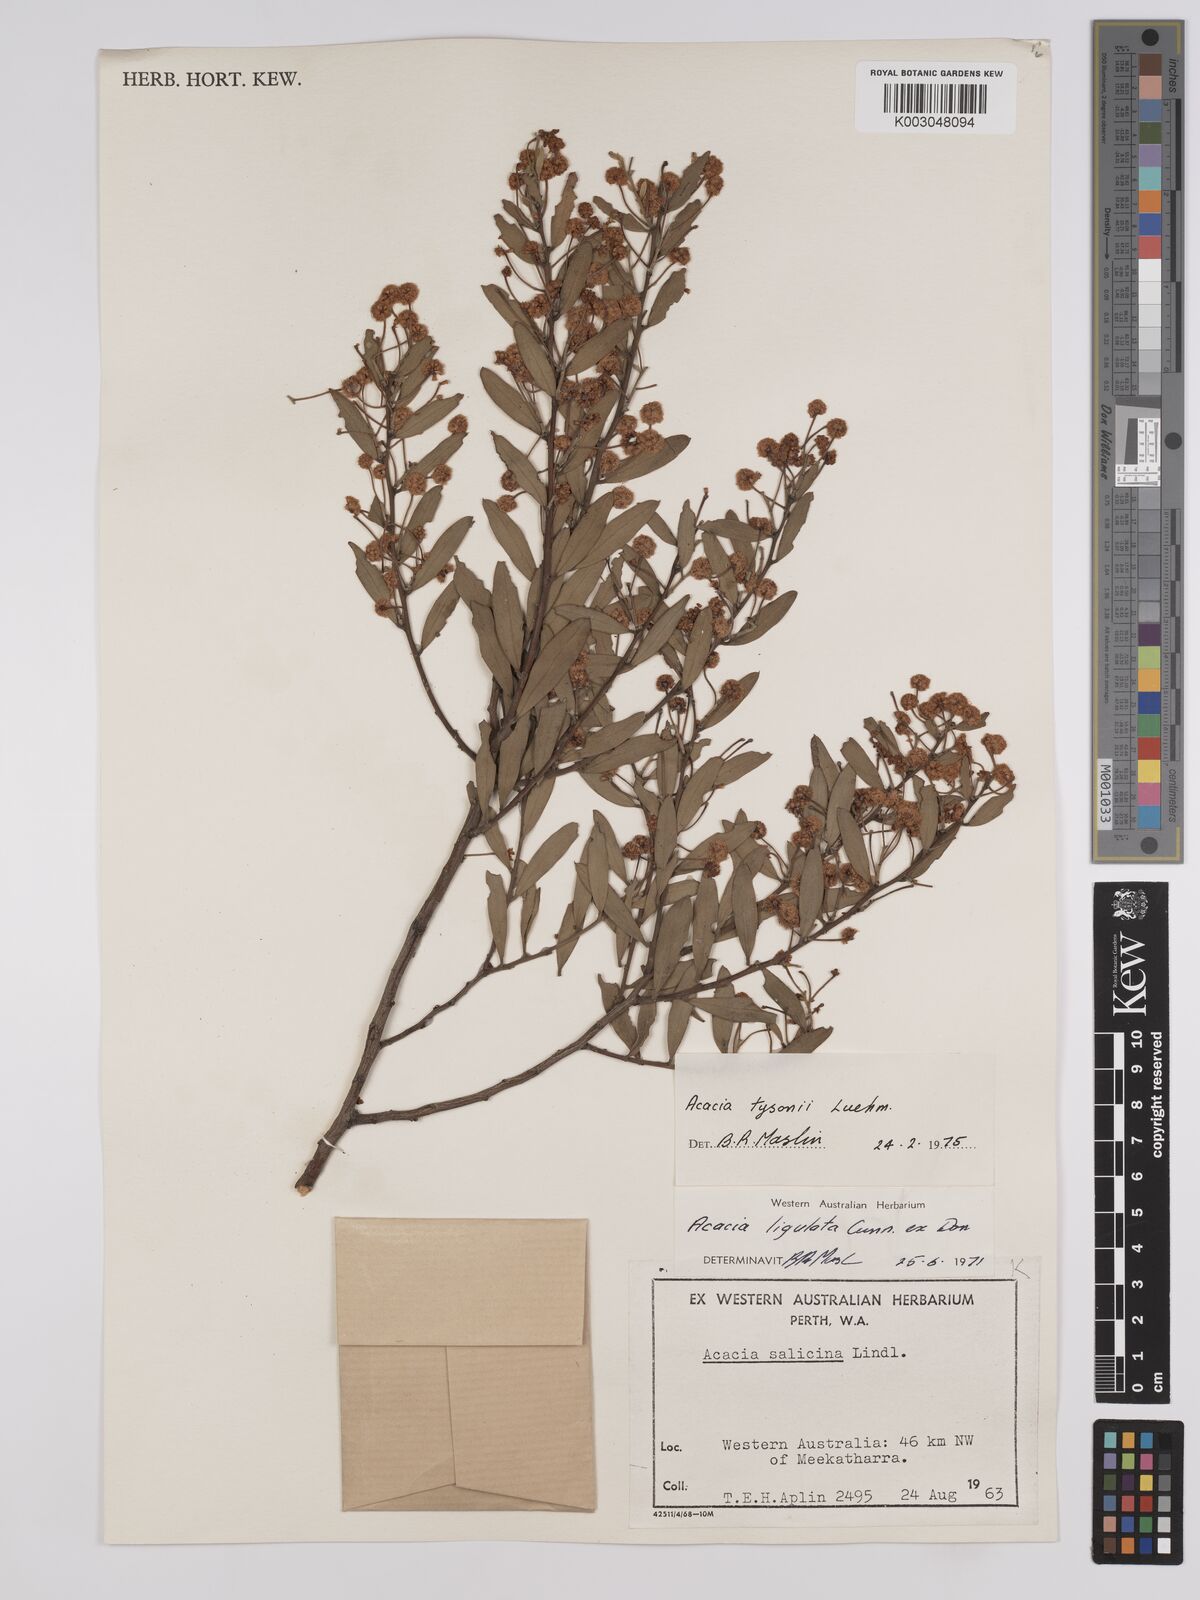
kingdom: Plantae
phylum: Tracheophyta
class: Magnoliopsida
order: Fabales
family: Fabaceae
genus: Acacia
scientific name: Acacia tysonii
